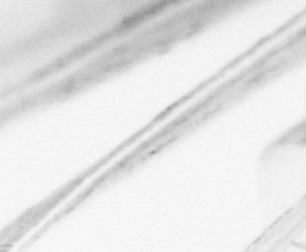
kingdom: Animalia
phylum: Chordata
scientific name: Chordata
